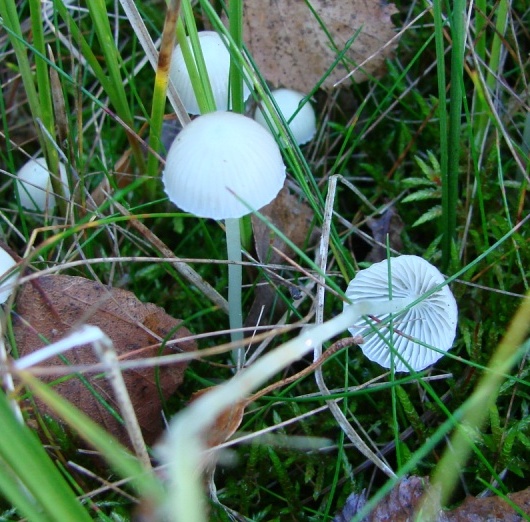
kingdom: Fungi
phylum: Basidiomycota
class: Agaricomycetes
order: Agaricales
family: Mycenaceae
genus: Mycena
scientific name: Mycena epipterygia
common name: gulstokket huesvamp
